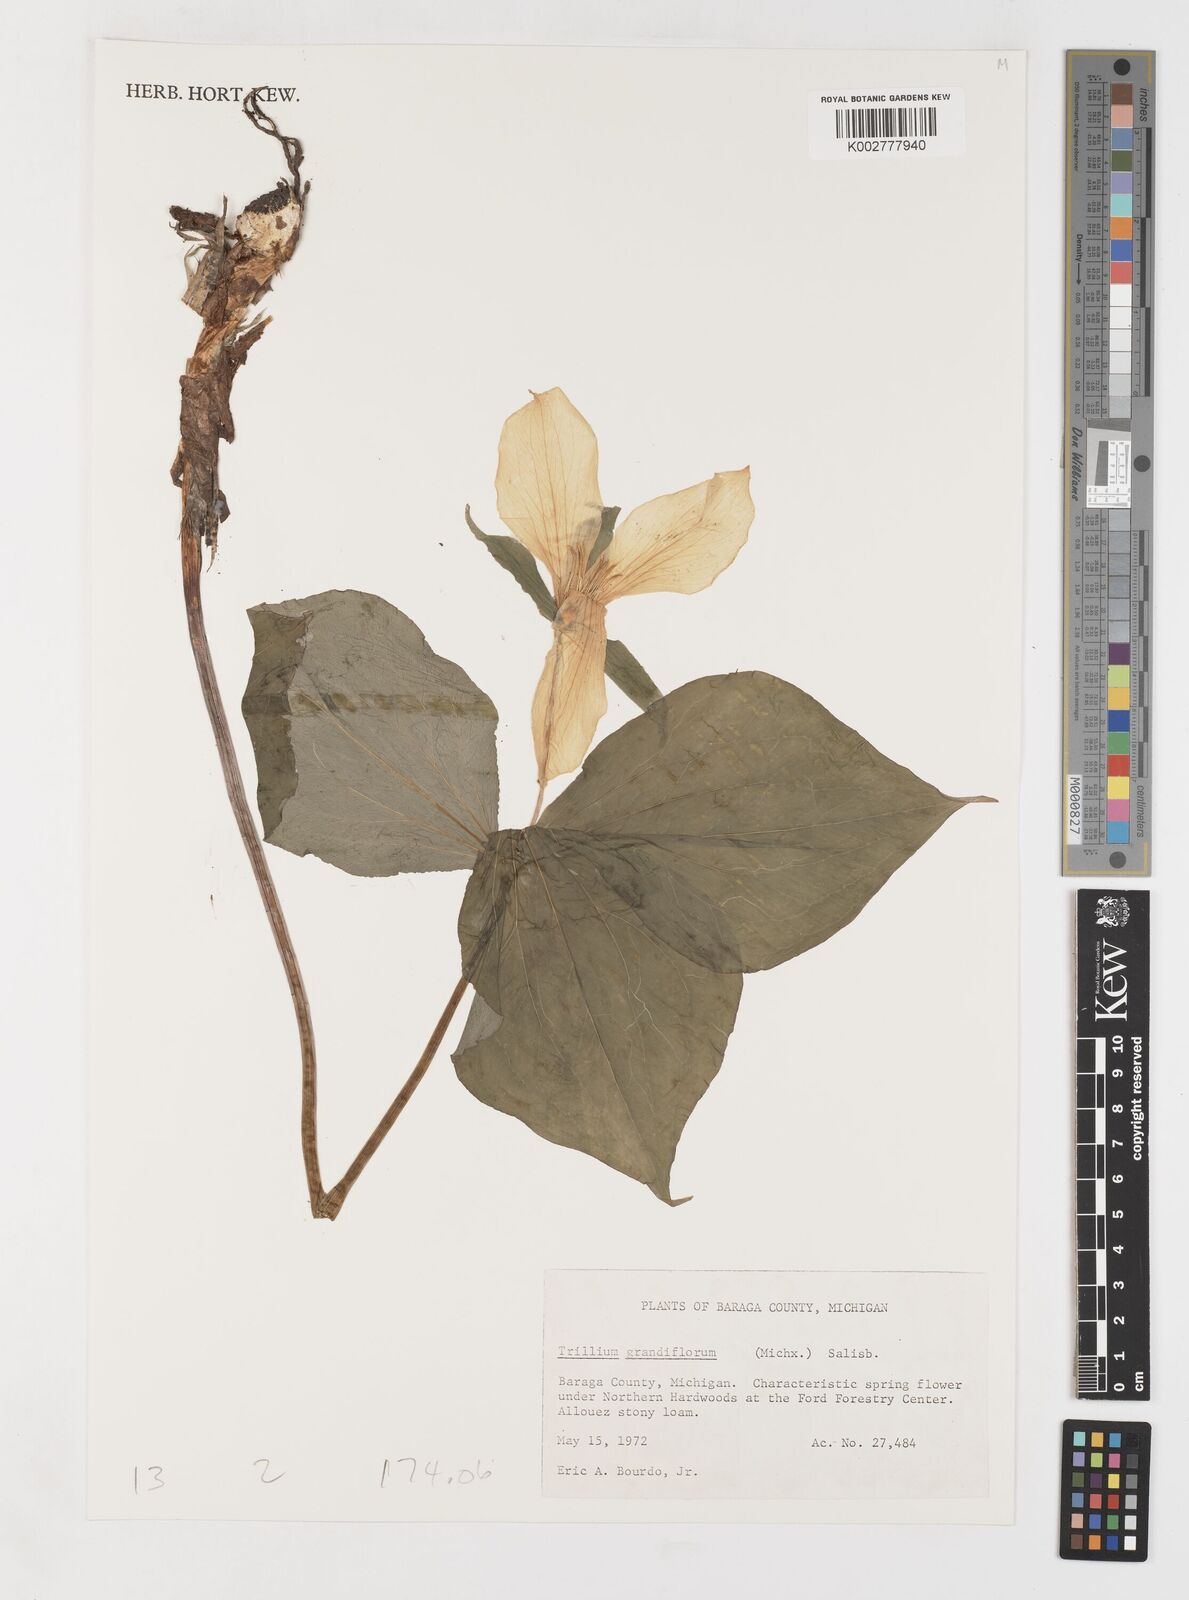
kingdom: Plantae
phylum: Tracheophyta
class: Liliopsida
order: Liliales
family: Melanthiaceae
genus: Trillium
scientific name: Trillium grandiflorum
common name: Great white trillium
